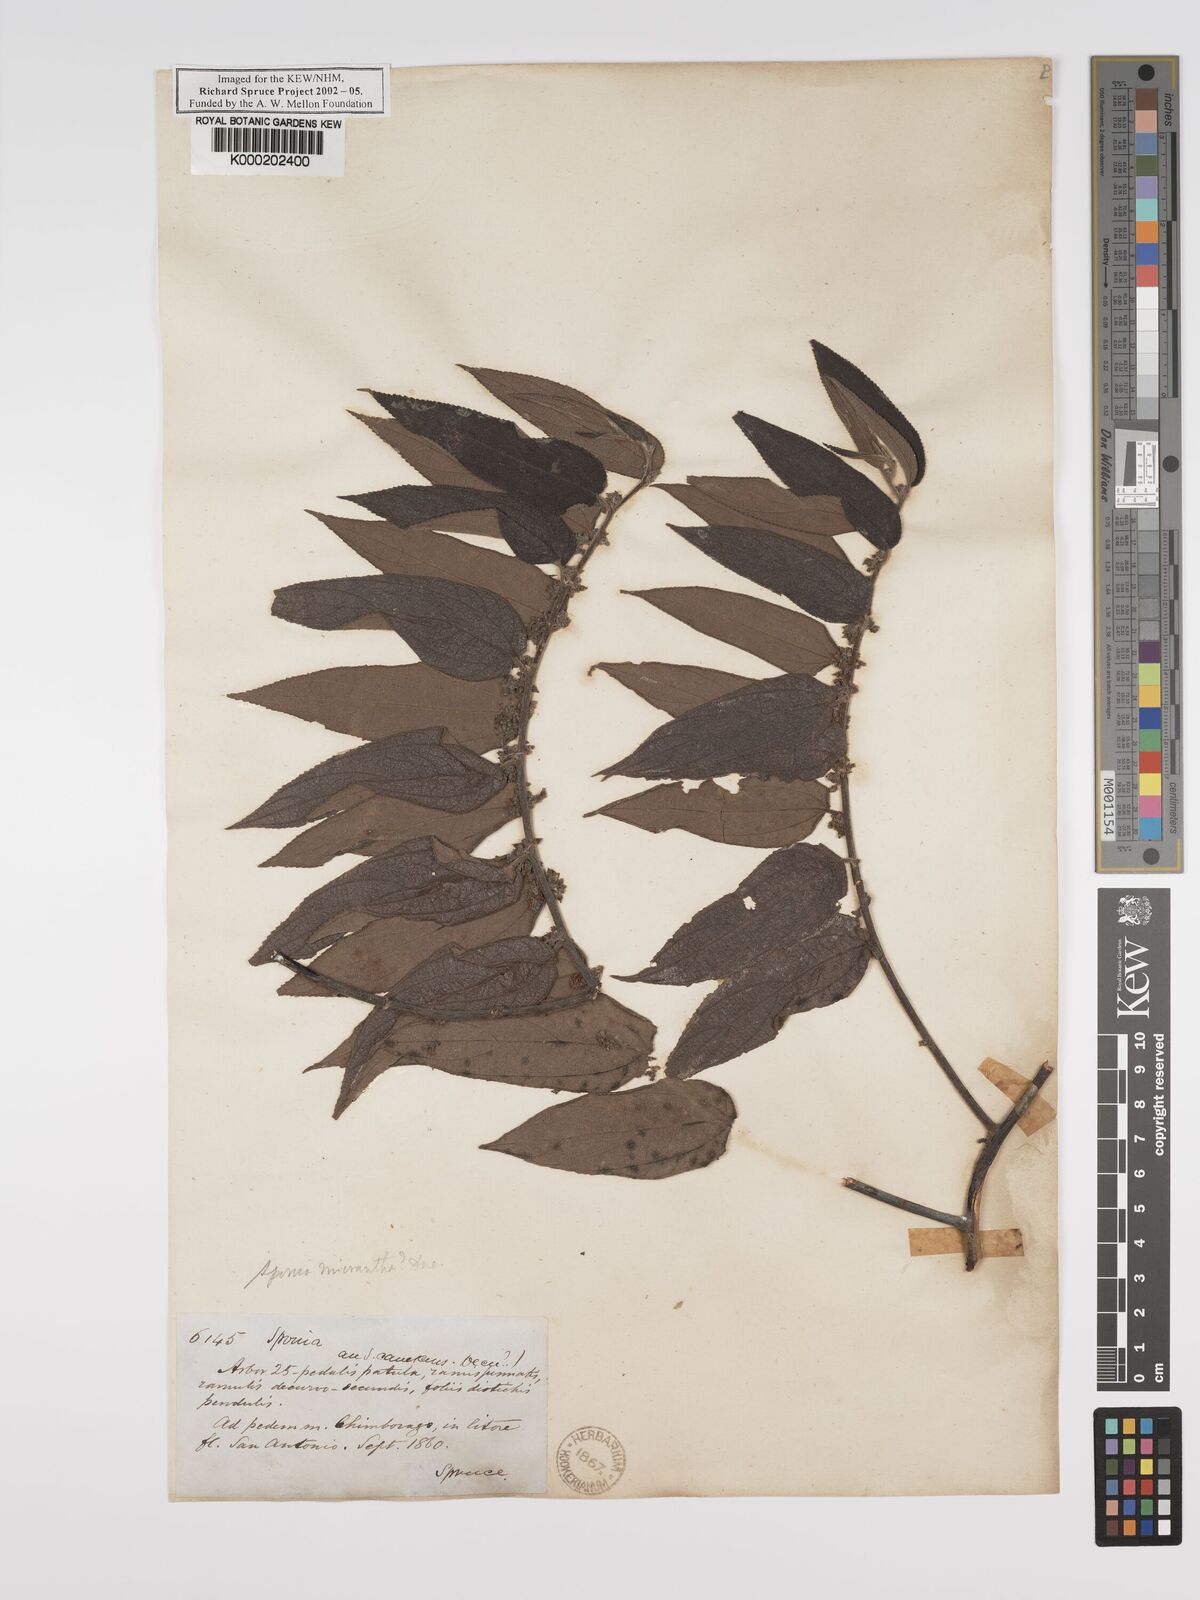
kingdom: Plantae
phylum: Tracheophyta
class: Magnoliopsida
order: Rosales
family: Cannabaceae
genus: Trema
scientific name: Trema
